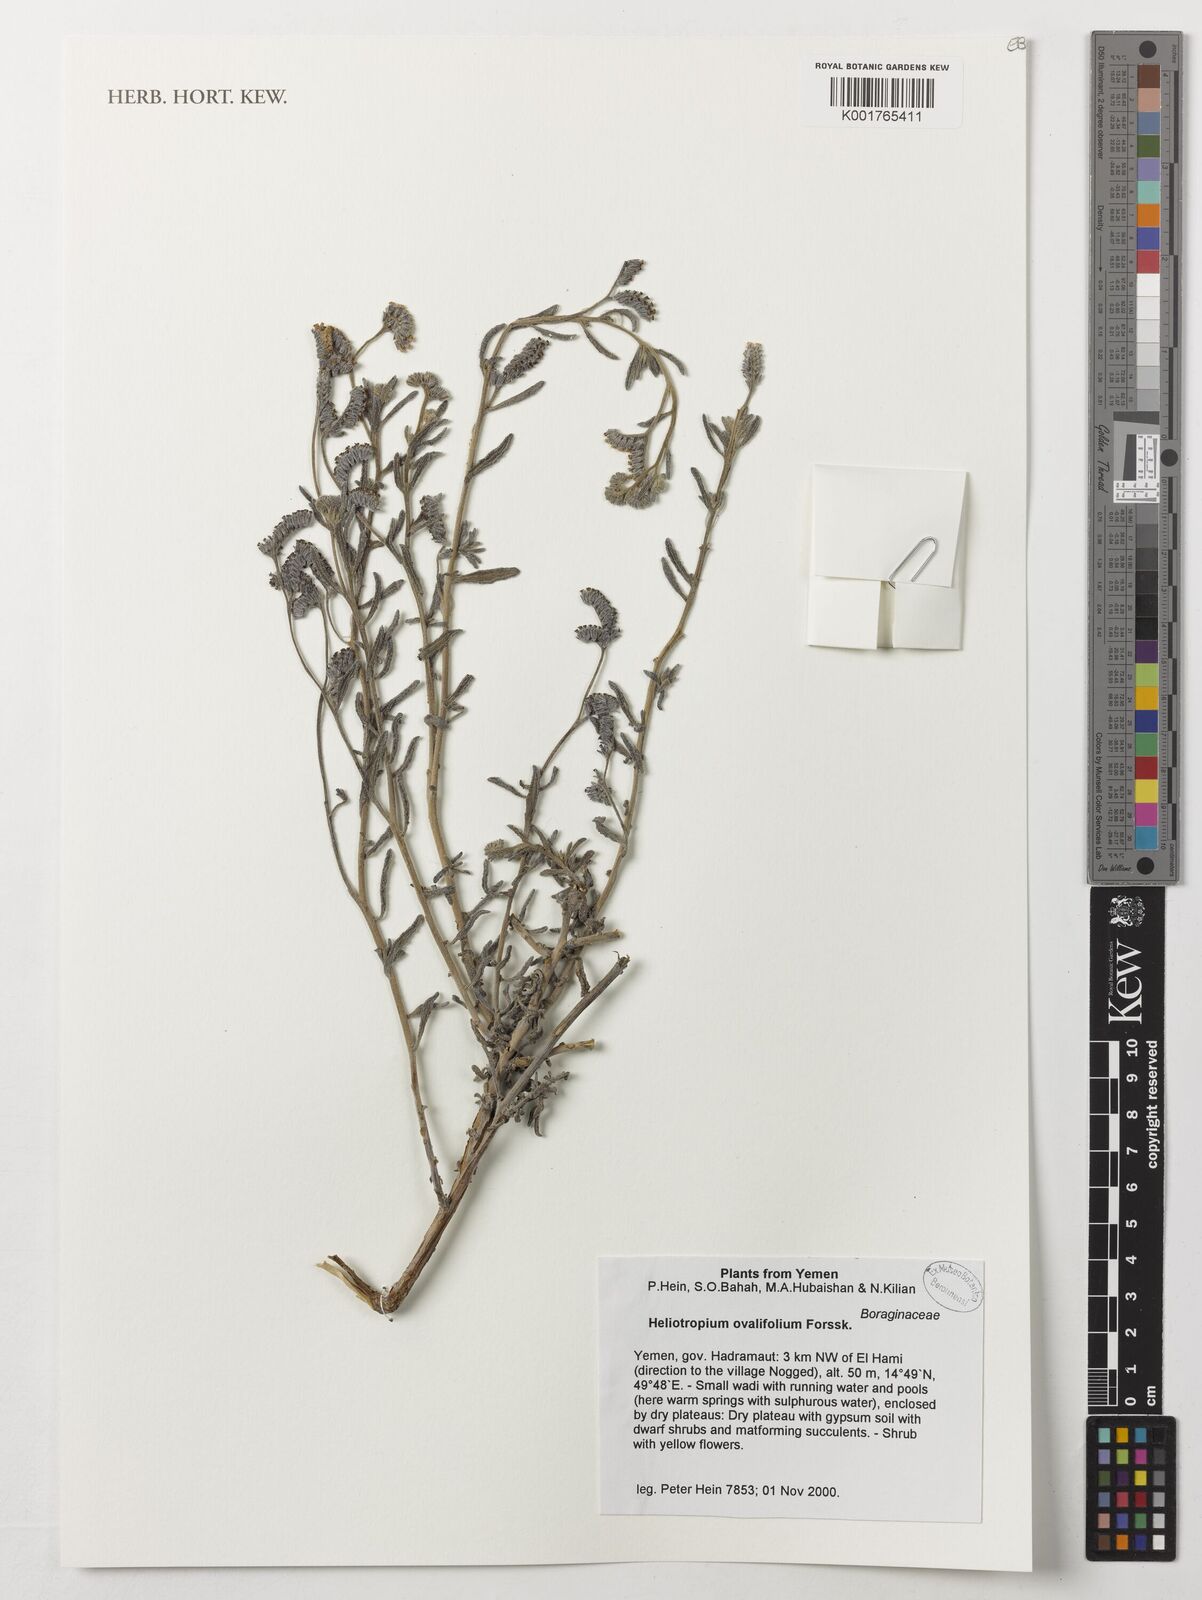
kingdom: Plantae
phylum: Tracheophyta
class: Magnoliopsida
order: Boraginales
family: Heliotropiaceae
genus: Euploca
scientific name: Euploca ovalifolia
